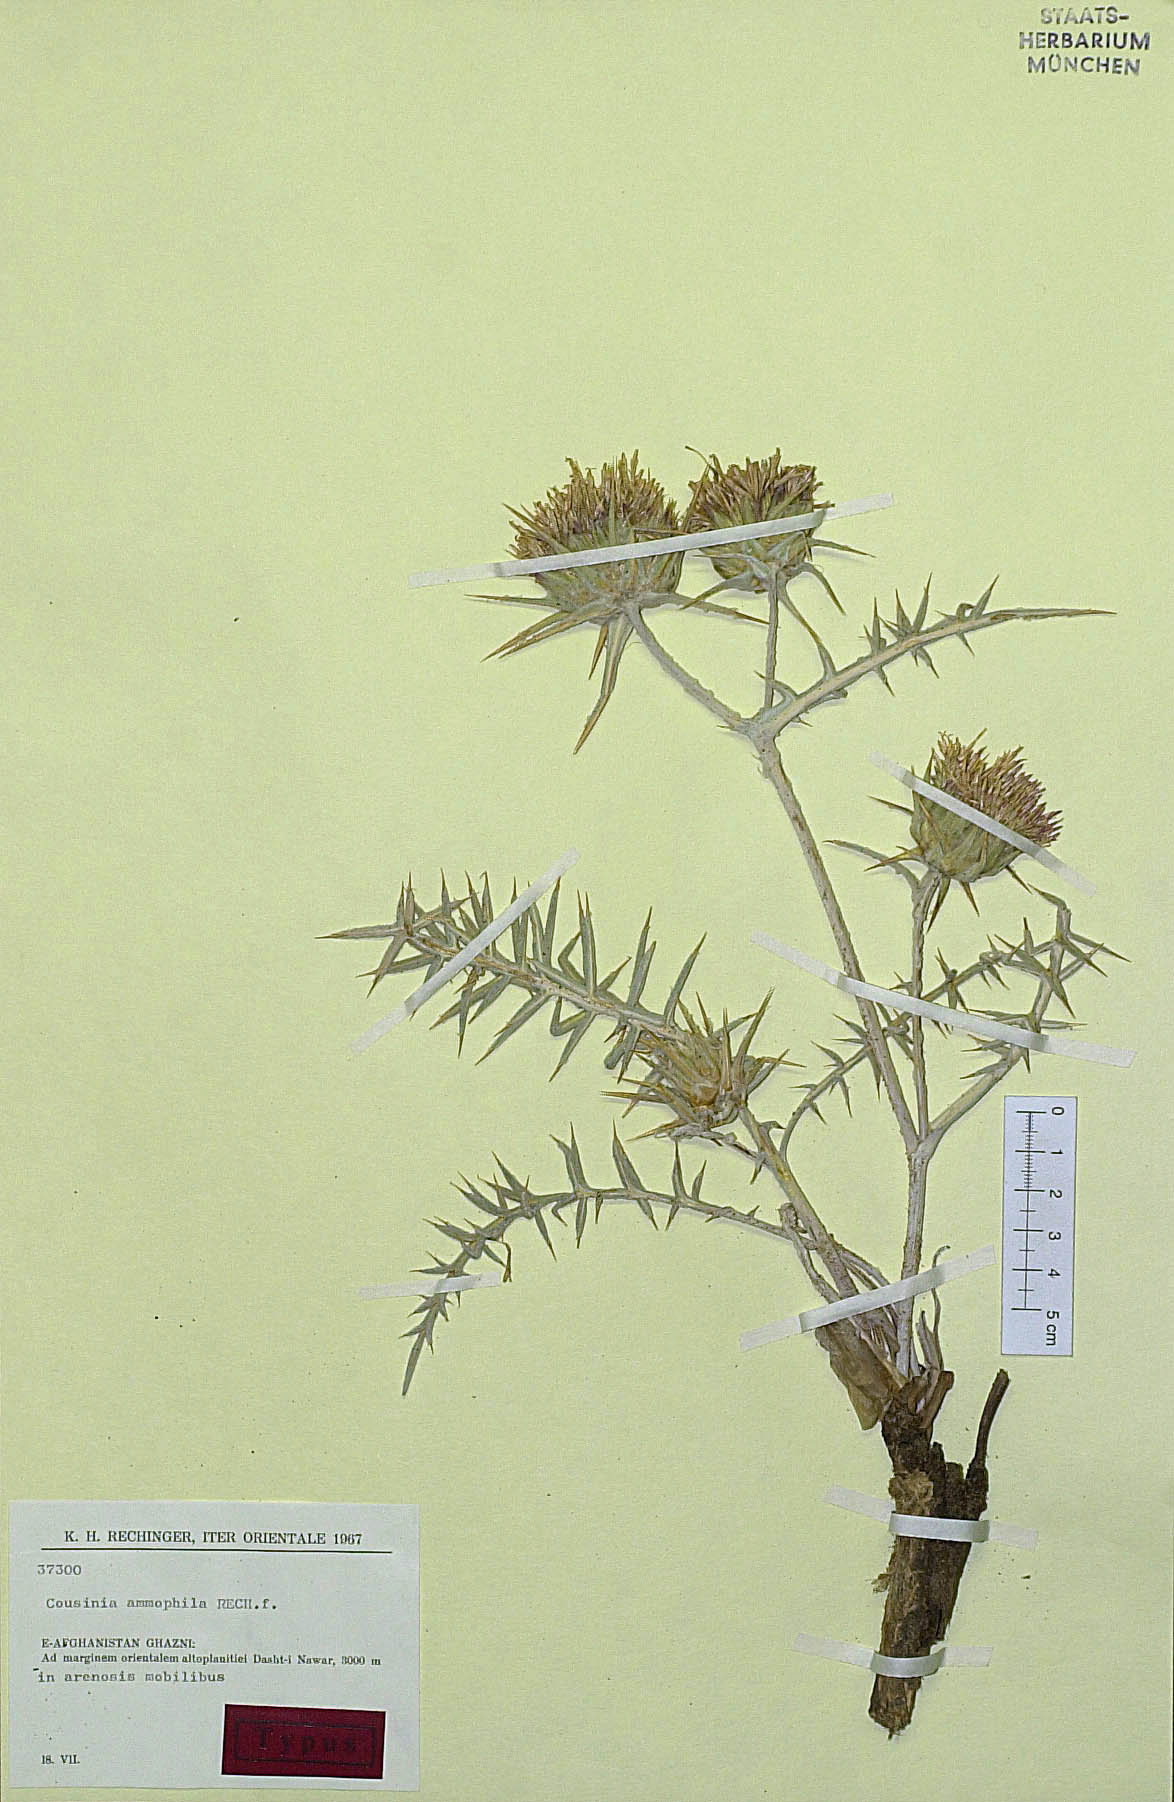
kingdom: Plantae
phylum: Tracheophyta
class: Magnoliopsida
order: Asterales
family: Asteraceae
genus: Cousinia
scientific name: Cousinia ammophila
